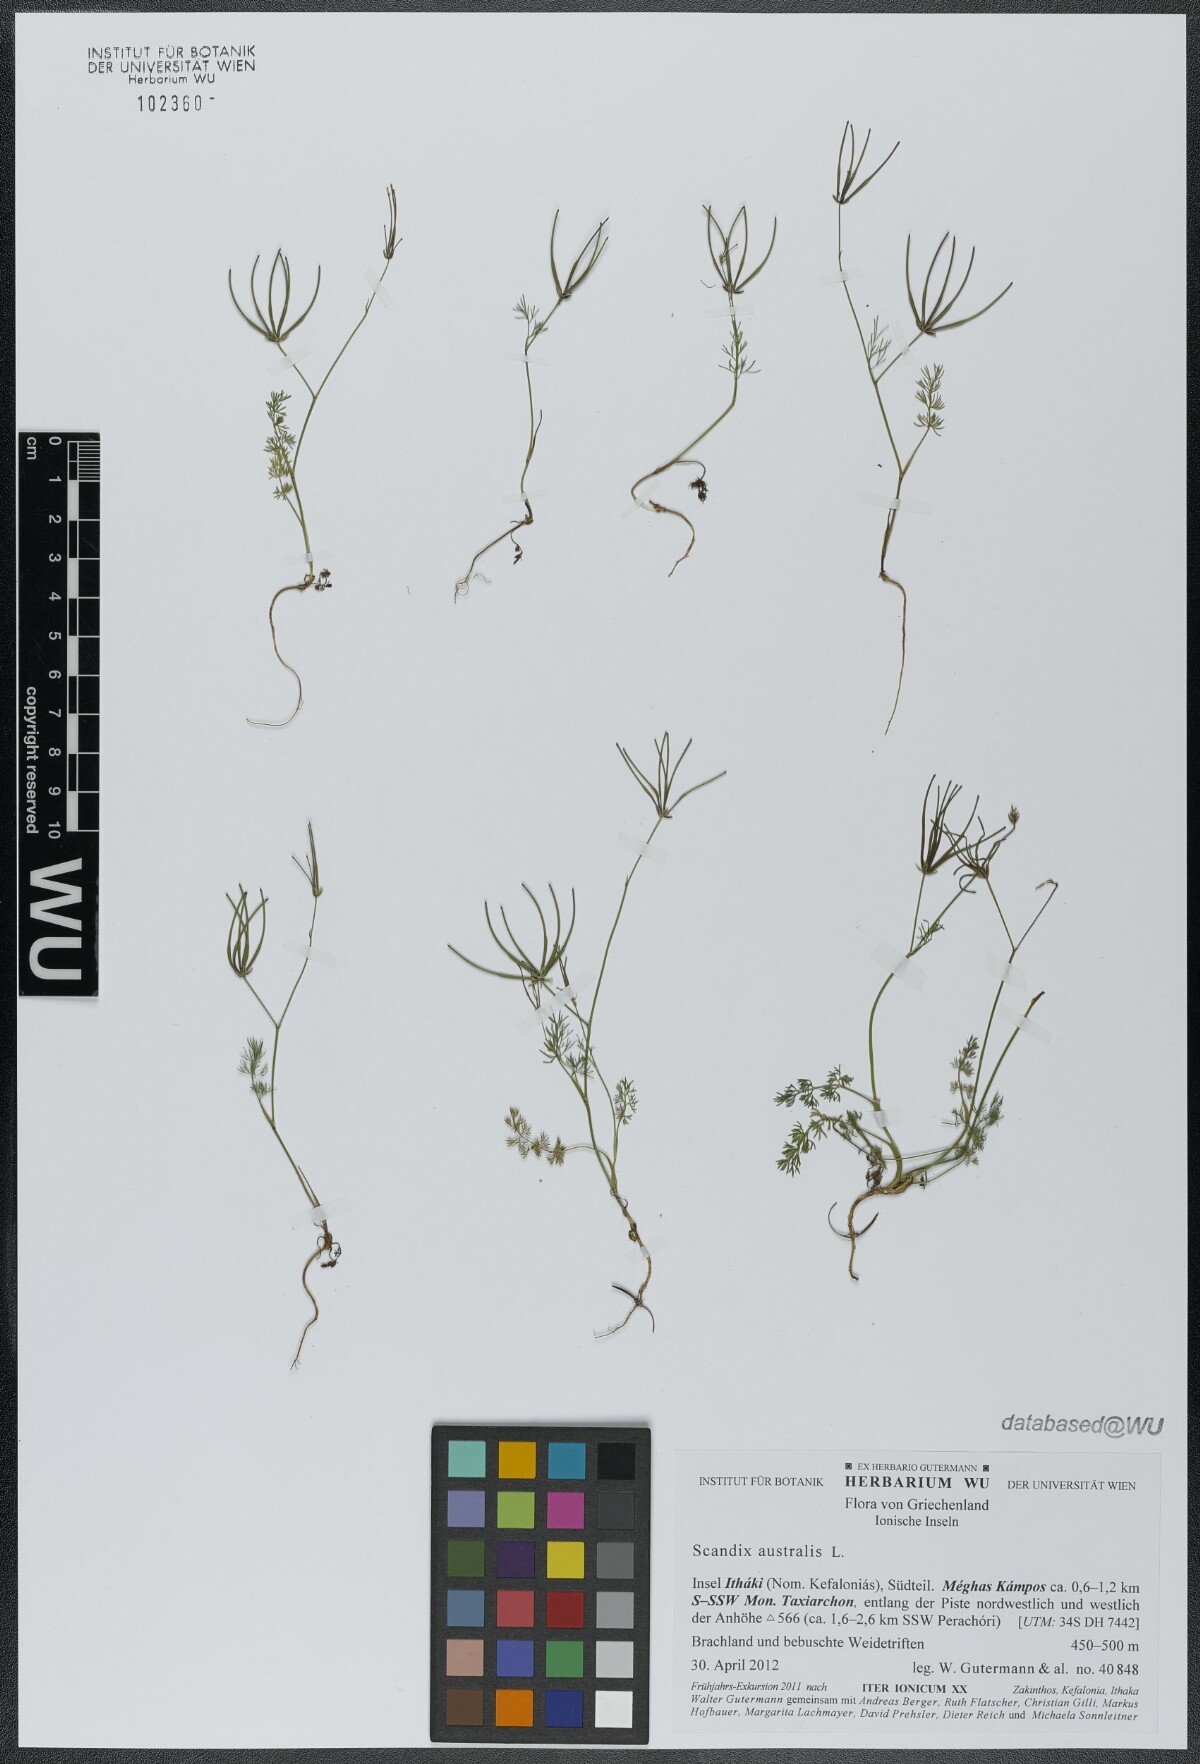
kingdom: Plantae
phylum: Tracheophyta
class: Magnoliopsida
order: Apiales
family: Apiaceae
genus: Scandix
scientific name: Scandix australis
